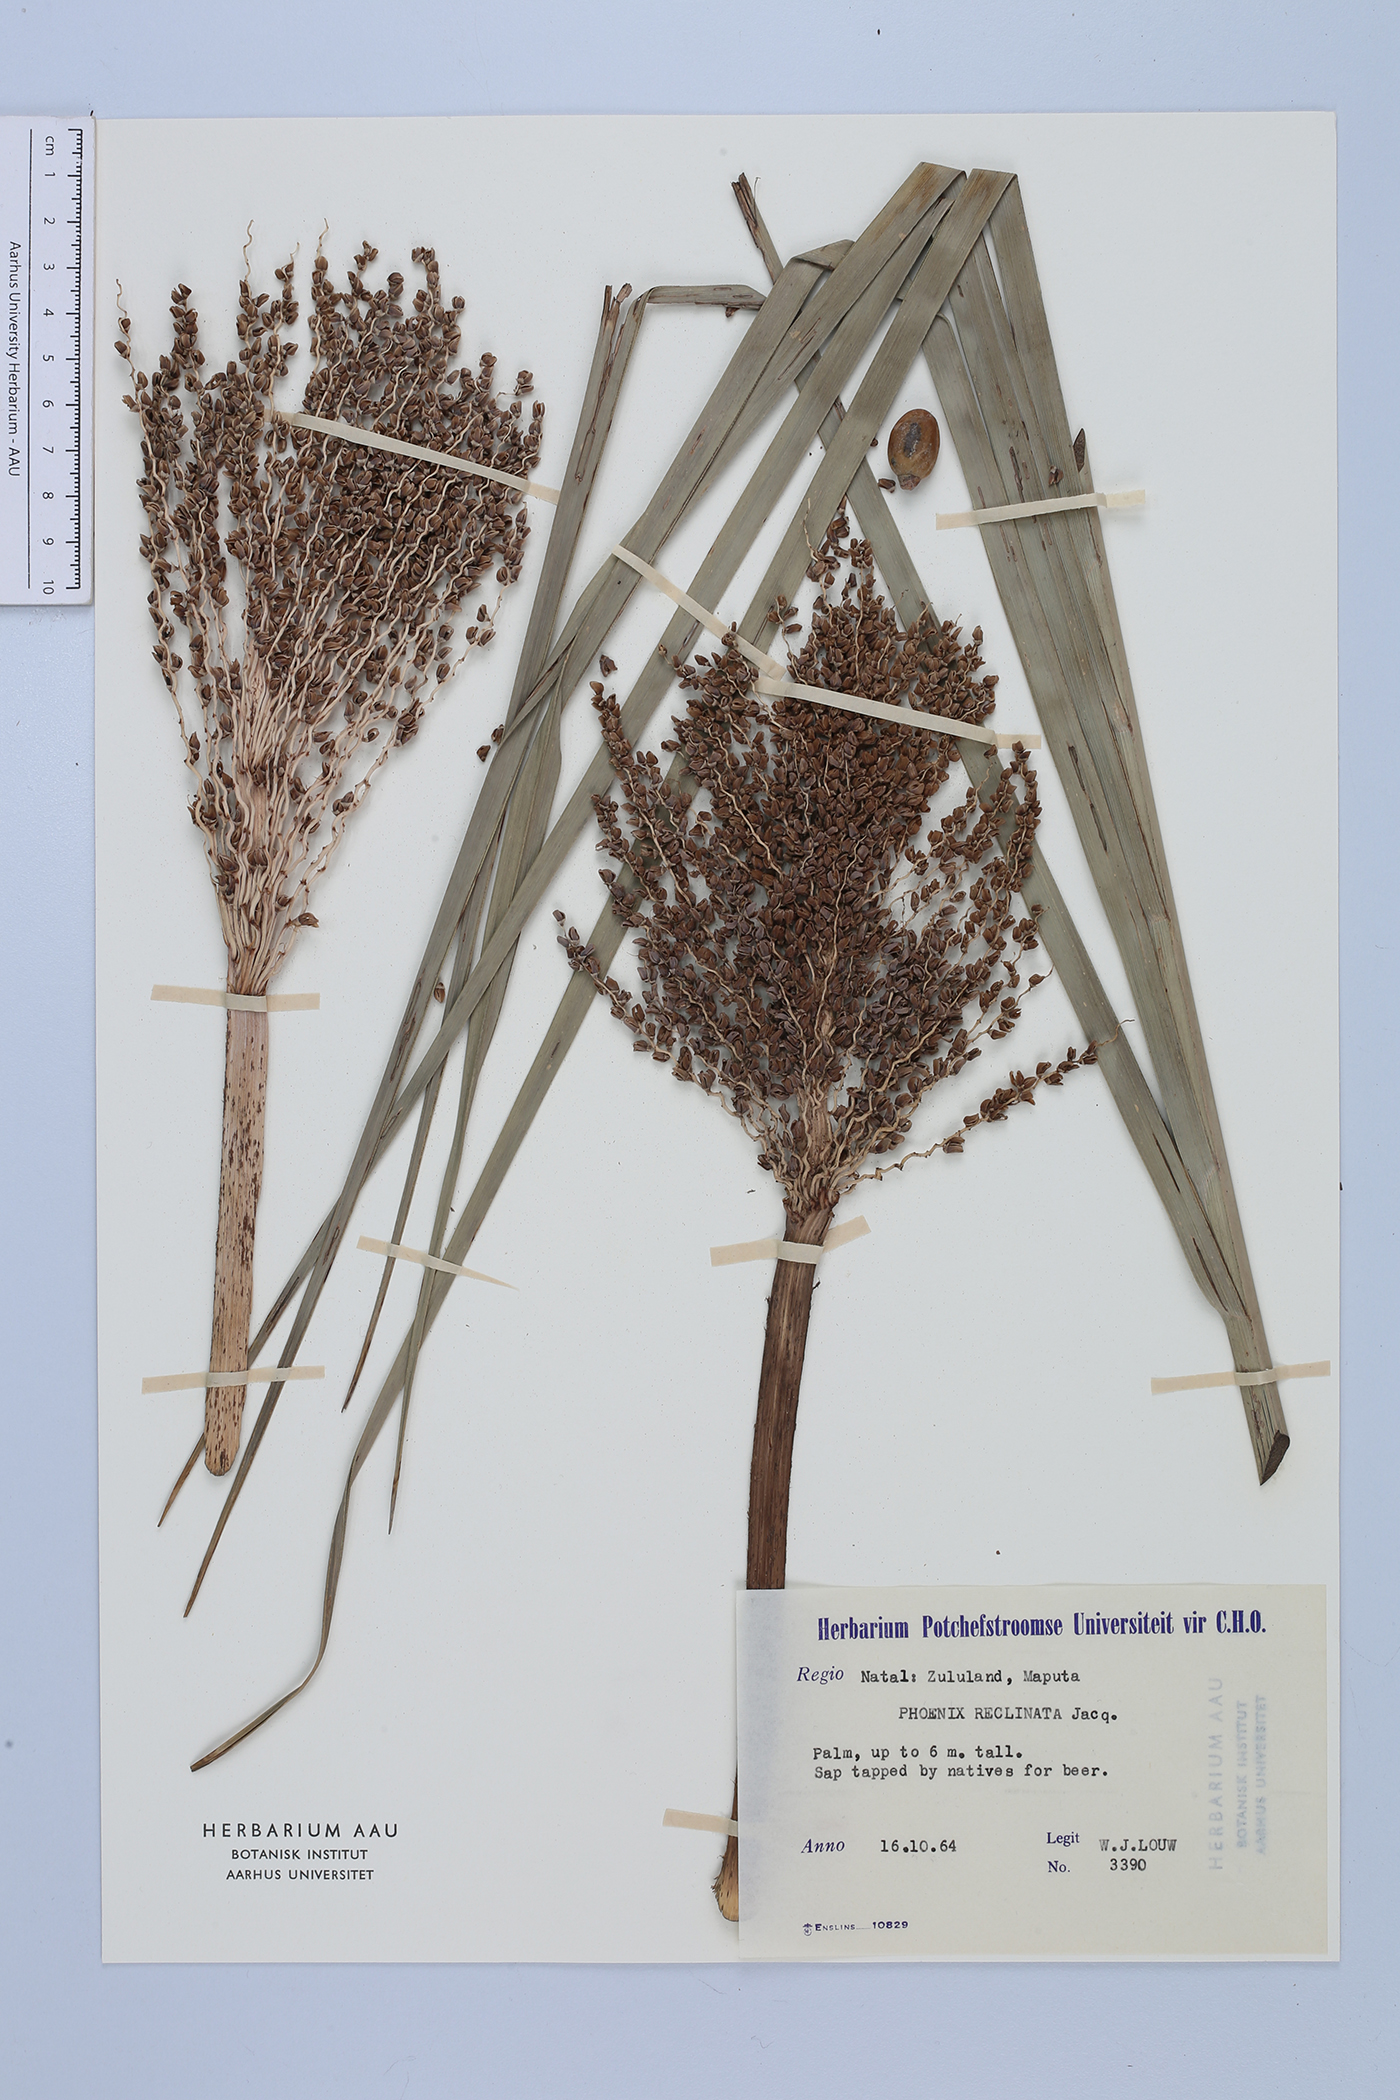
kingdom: Plantae
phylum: Tracheophyta
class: Liliopsida
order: Arecales
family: Arecaceae
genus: Phoenix
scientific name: Phoenix reclinata
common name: Senegal date palm
